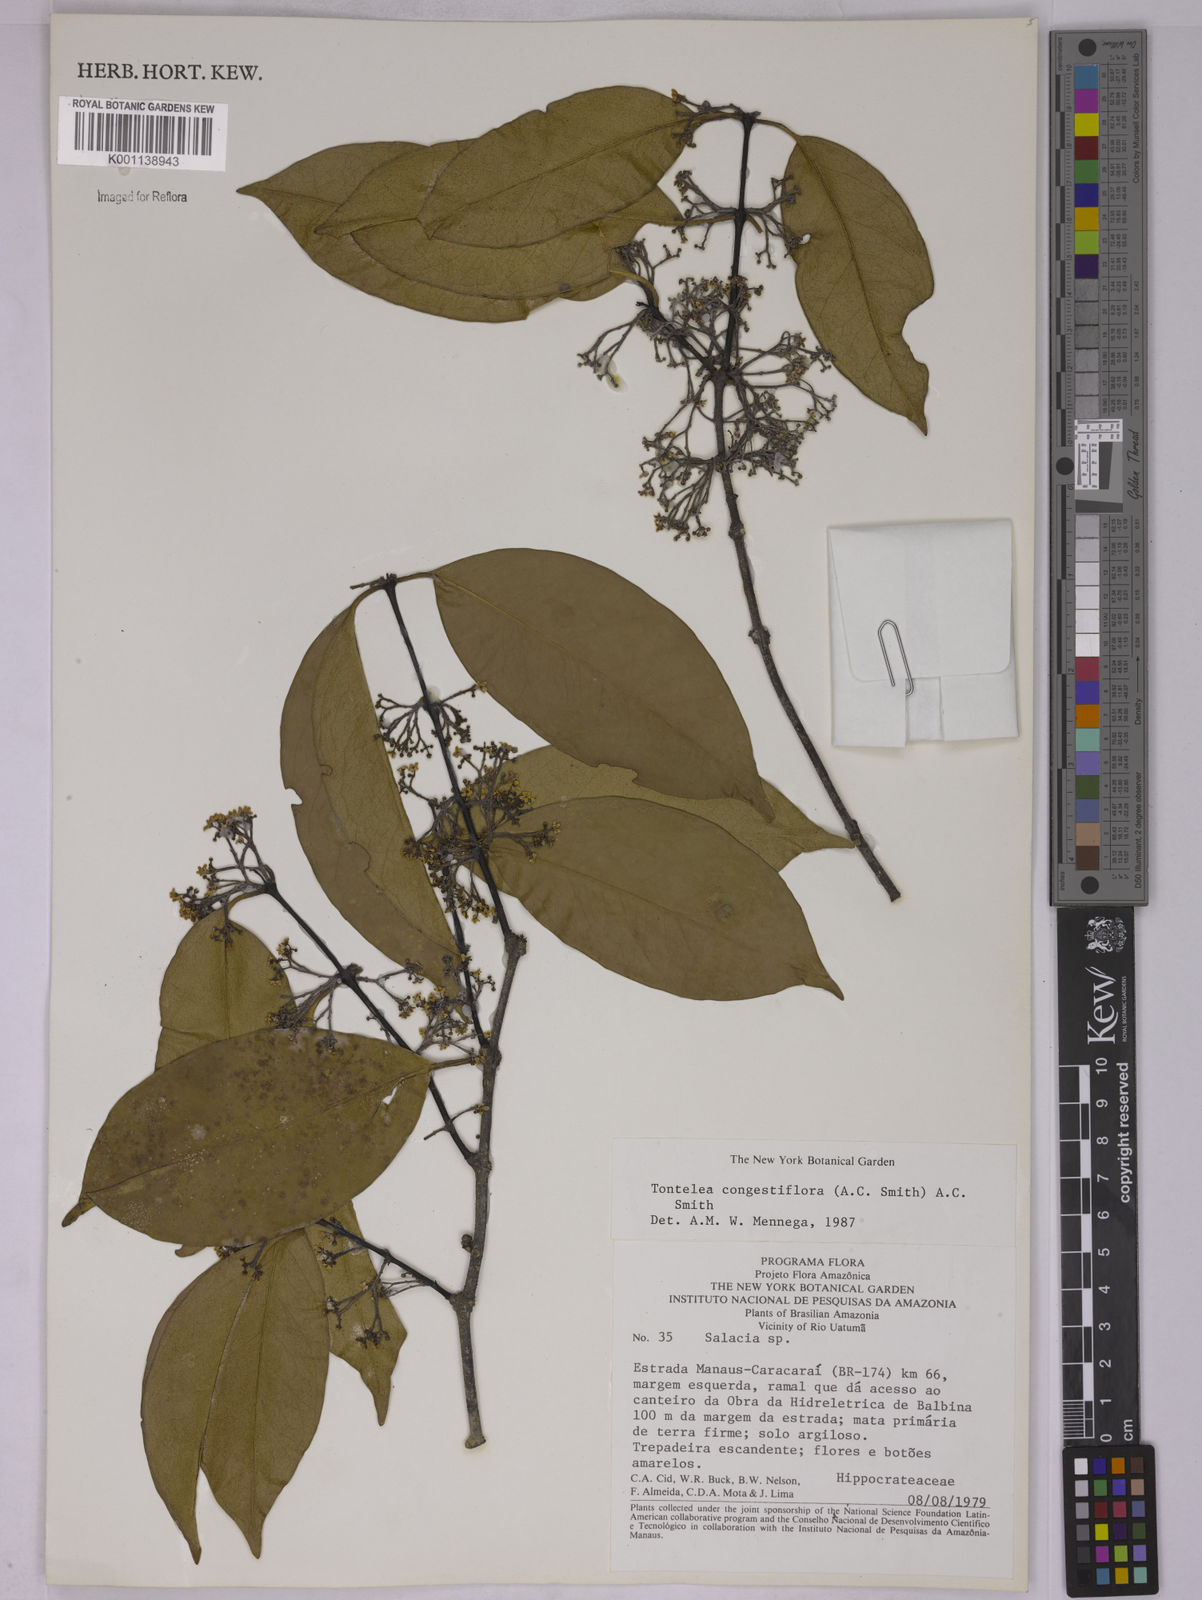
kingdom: Plantae
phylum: Tracheophyta
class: Magnoliopsida
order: Celastrales
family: Celastraceae
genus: Tontelea
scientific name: Tontelea congestiflora
